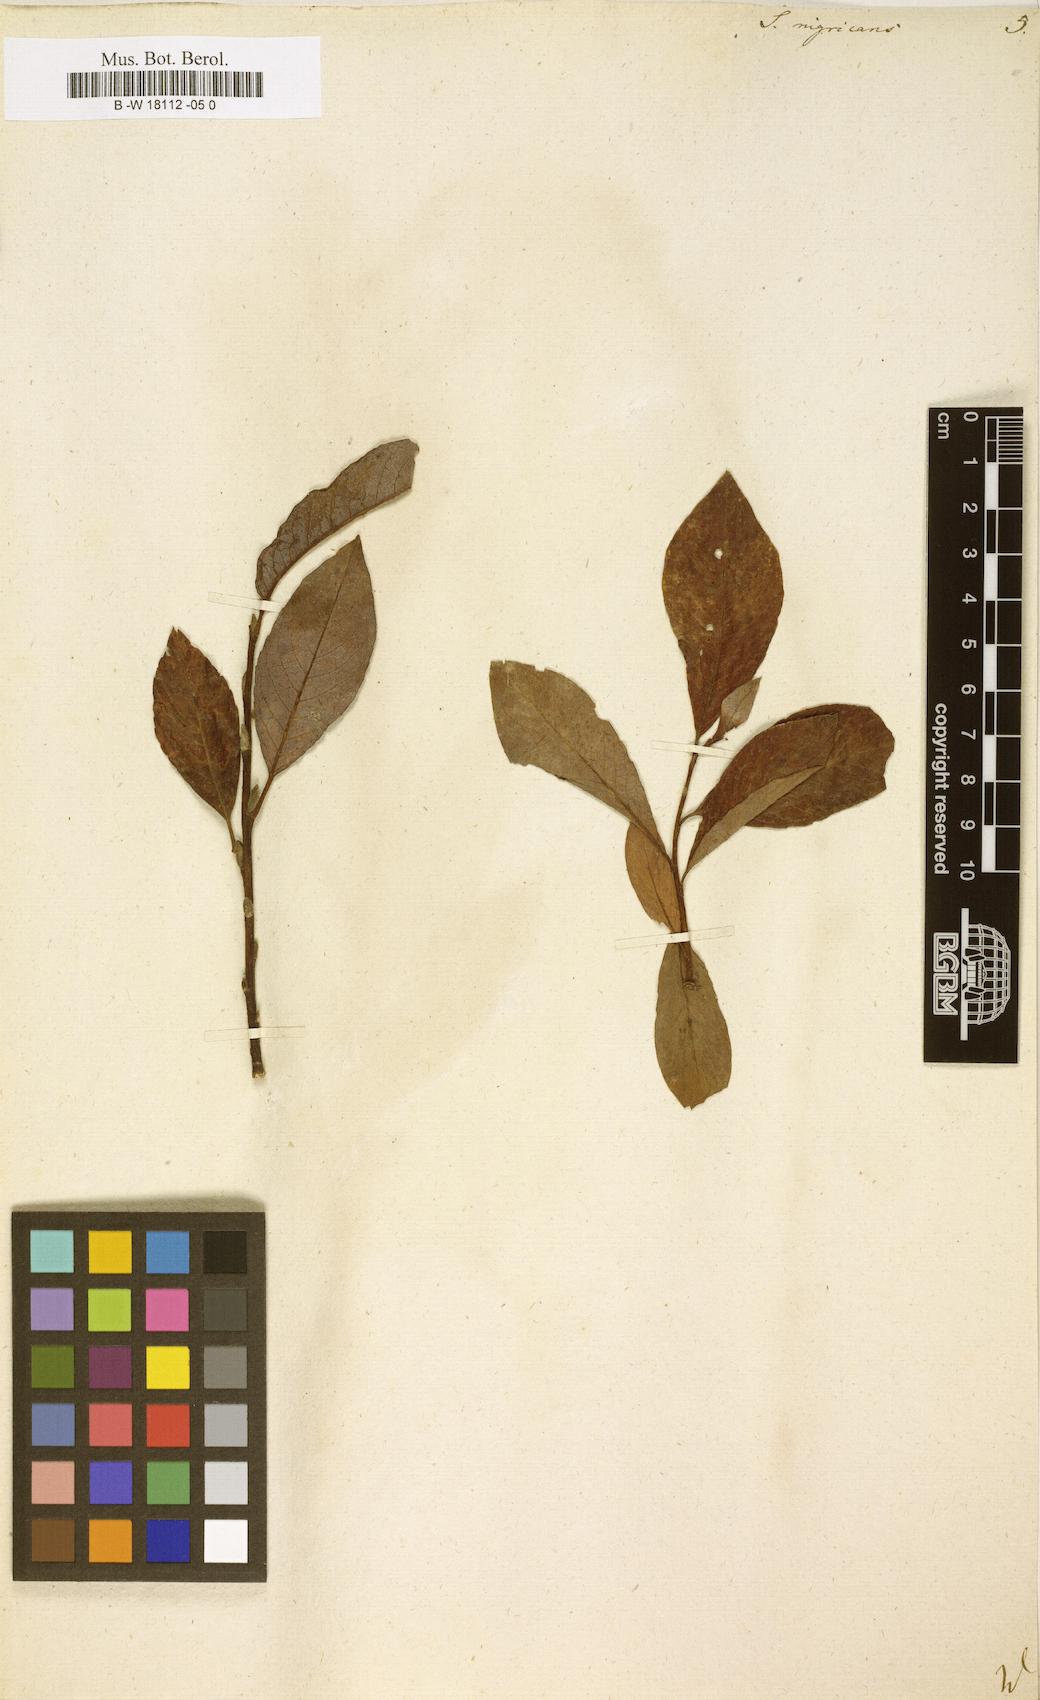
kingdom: Plantae
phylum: Tracheophyta
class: Magnoliopsida
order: Malpighiales
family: Salicaceae
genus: Salix
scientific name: Salix myrsinifolia
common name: Dark-leaved willow
